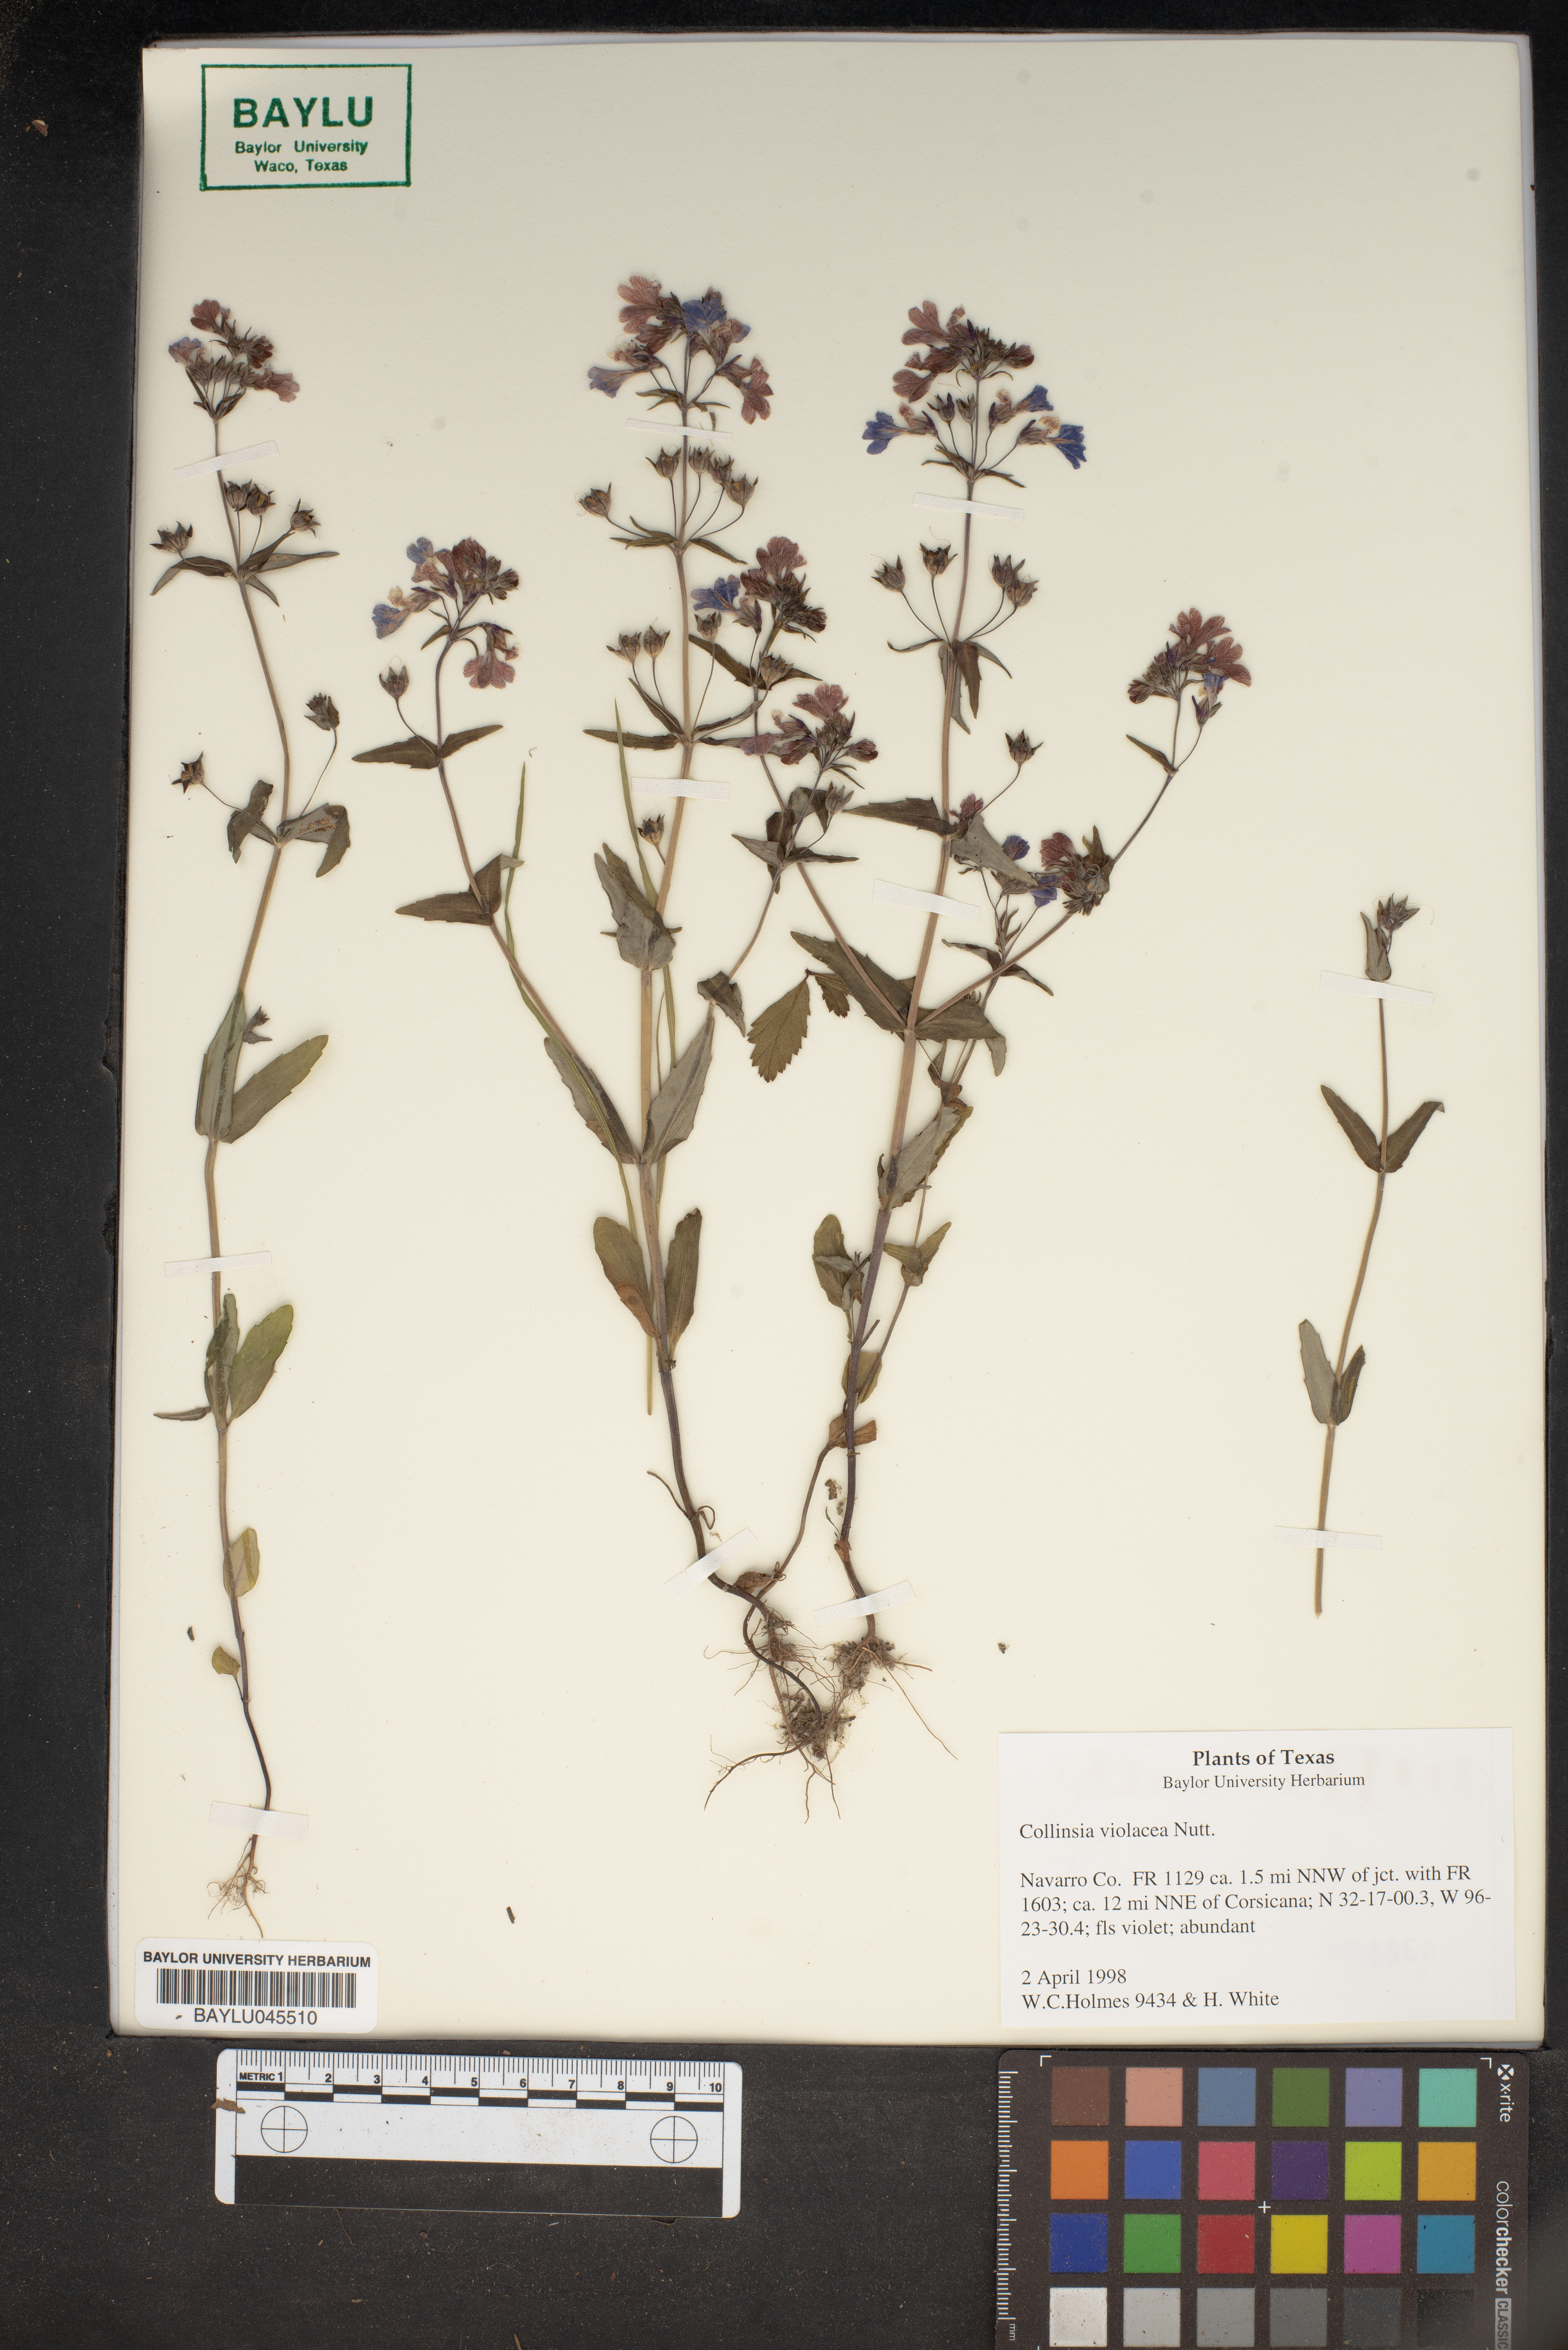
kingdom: Plantae
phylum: Tracheophyta
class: Magnoliopsida
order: Lamiales
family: Plantaginaceae
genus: Collinsia
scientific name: Collinsia violacea
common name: Violet collinsia
